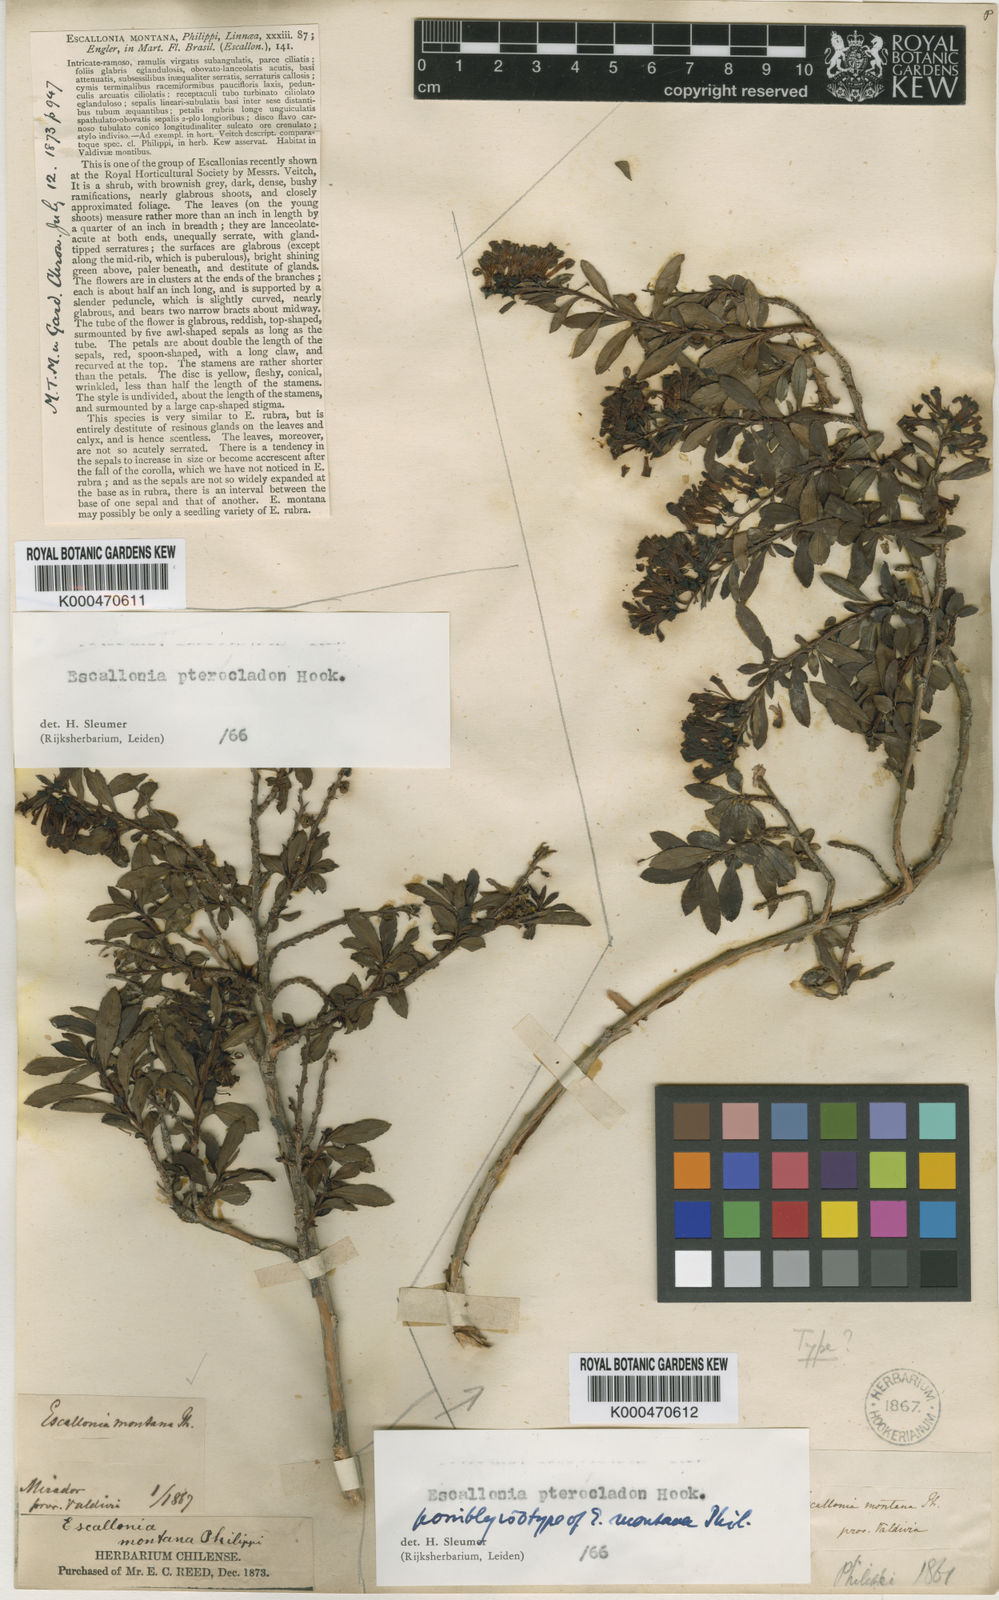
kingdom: Plantae
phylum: Tracheophyta
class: Magnoliopsida
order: Escalloniales
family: Escalloniaceae
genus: Escallonia
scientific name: Escallonia rosea
